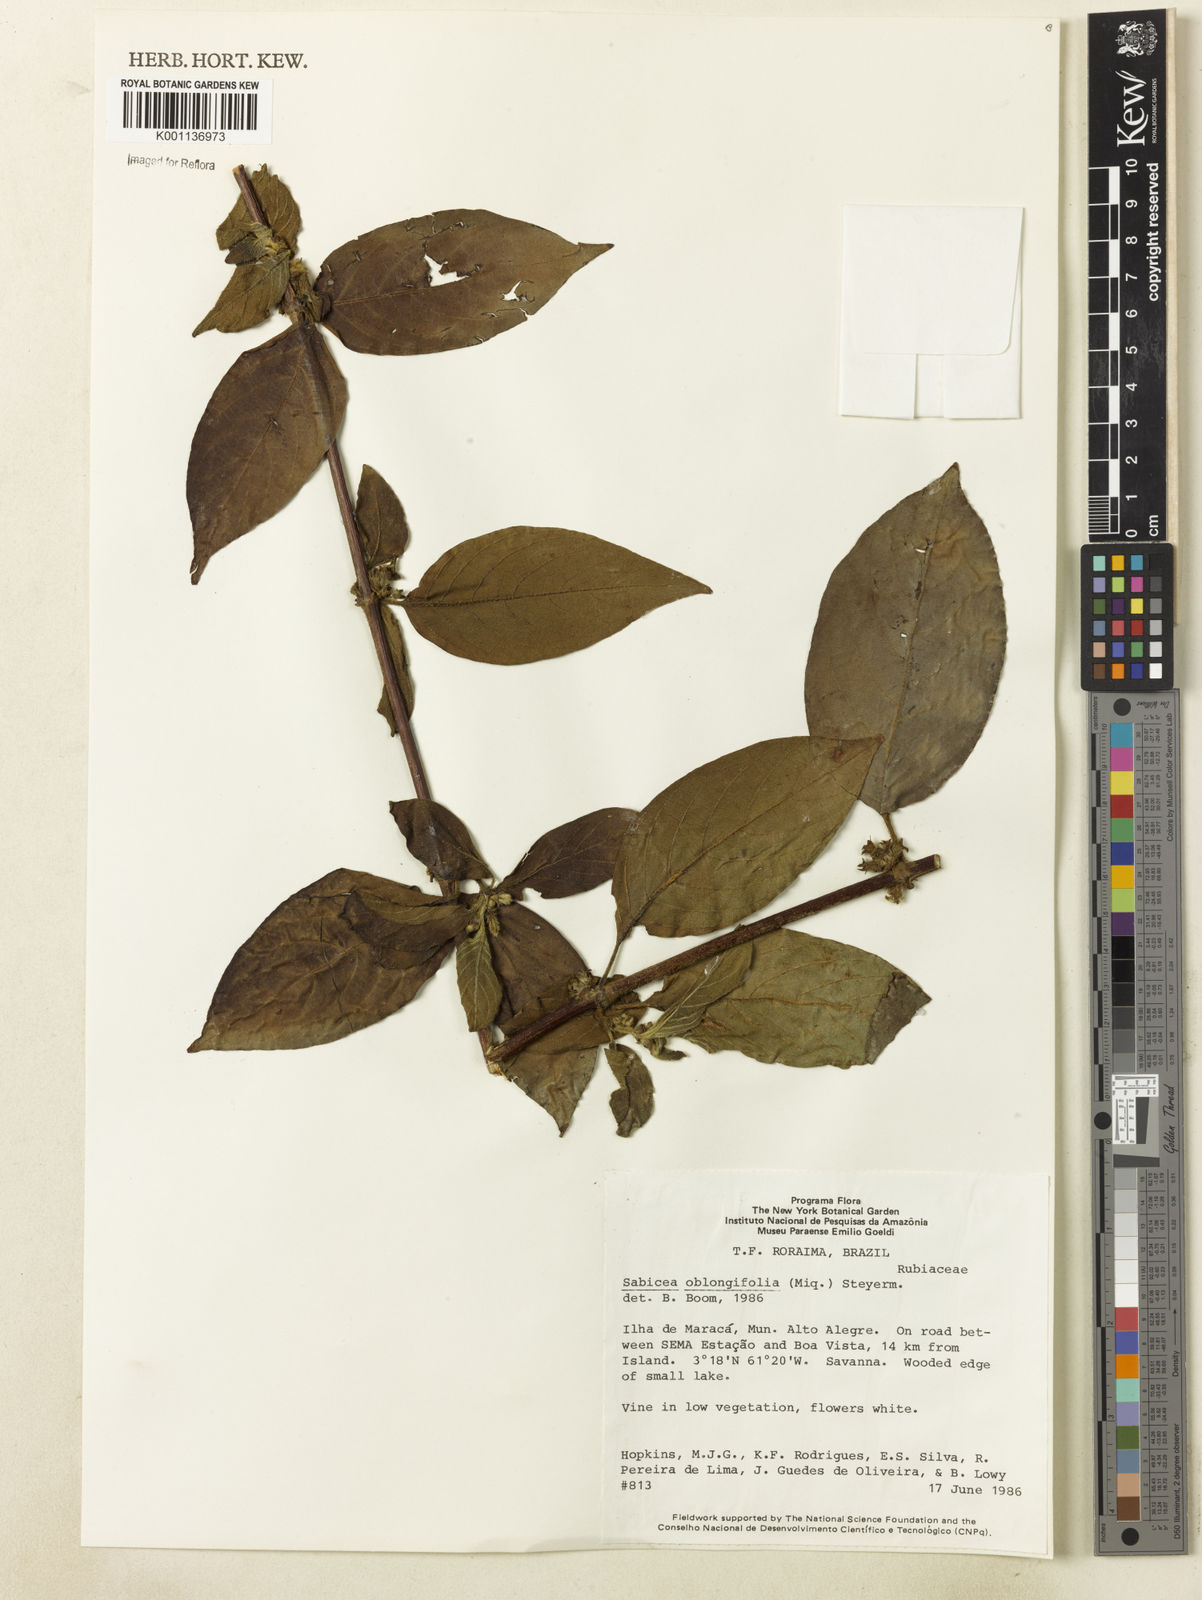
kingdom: Plantae
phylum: Tracheophyta
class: Magnoliopsida
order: Gentianales
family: Rubiaceae
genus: Sabicea
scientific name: Sabicea oblongifolia
